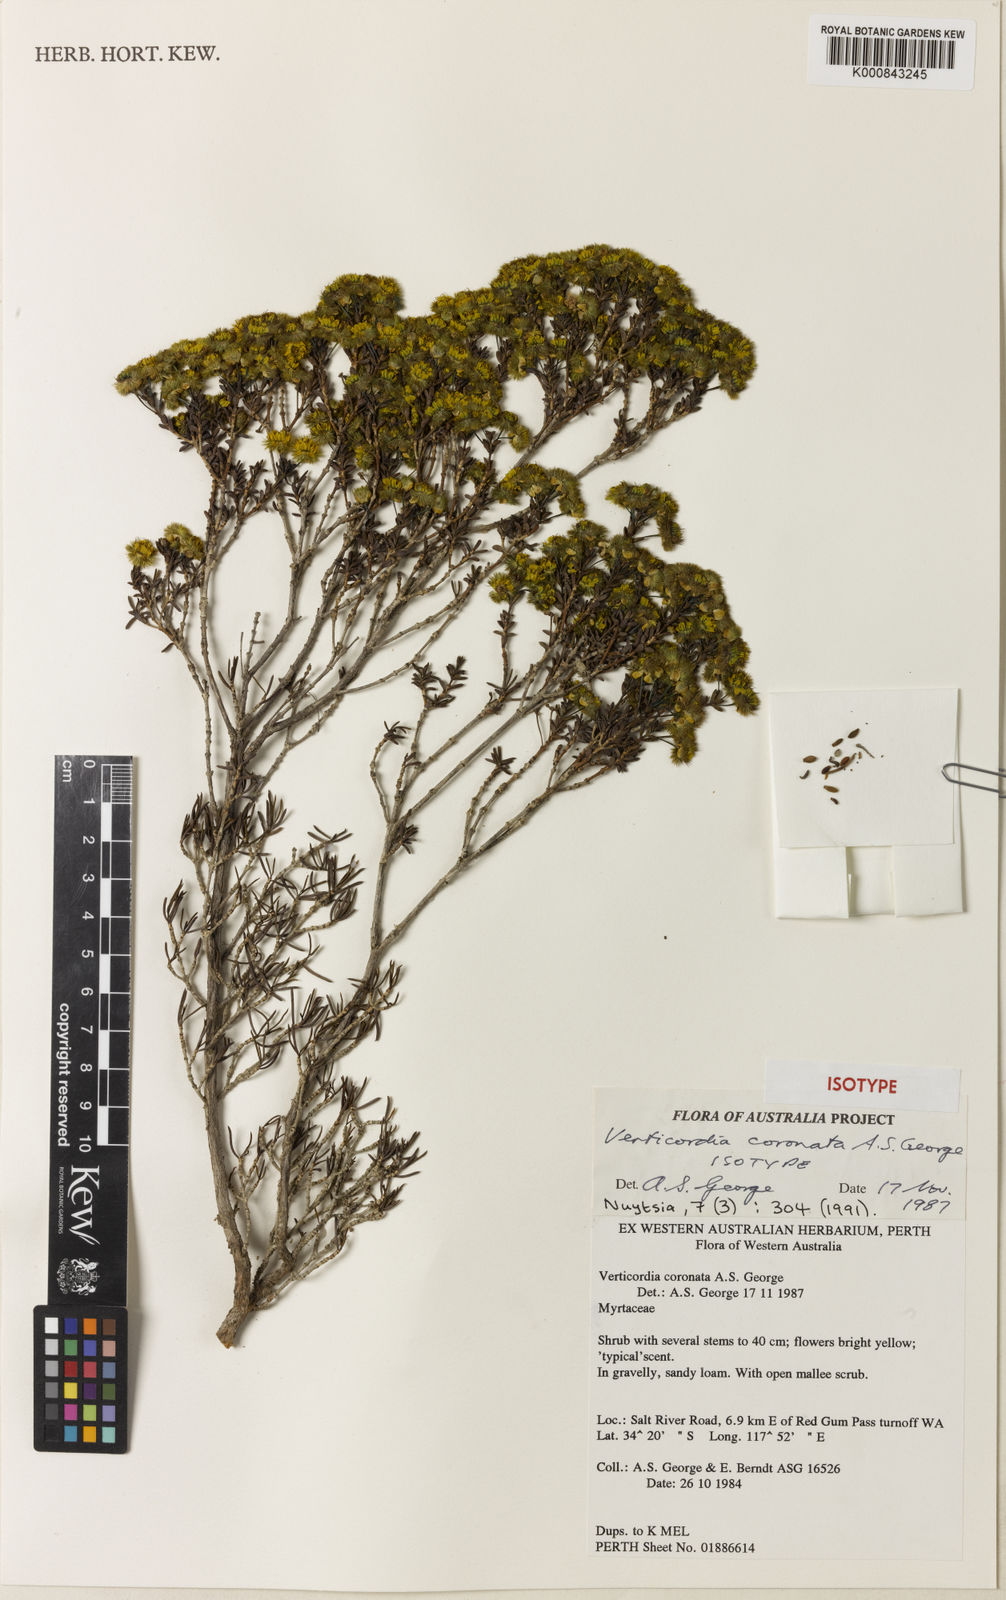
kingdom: Plantae
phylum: Tracheophyta
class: Magnoliopsida
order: Myrtales
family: Myrtaceae
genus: Verticordia
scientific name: Verticordia coronata
